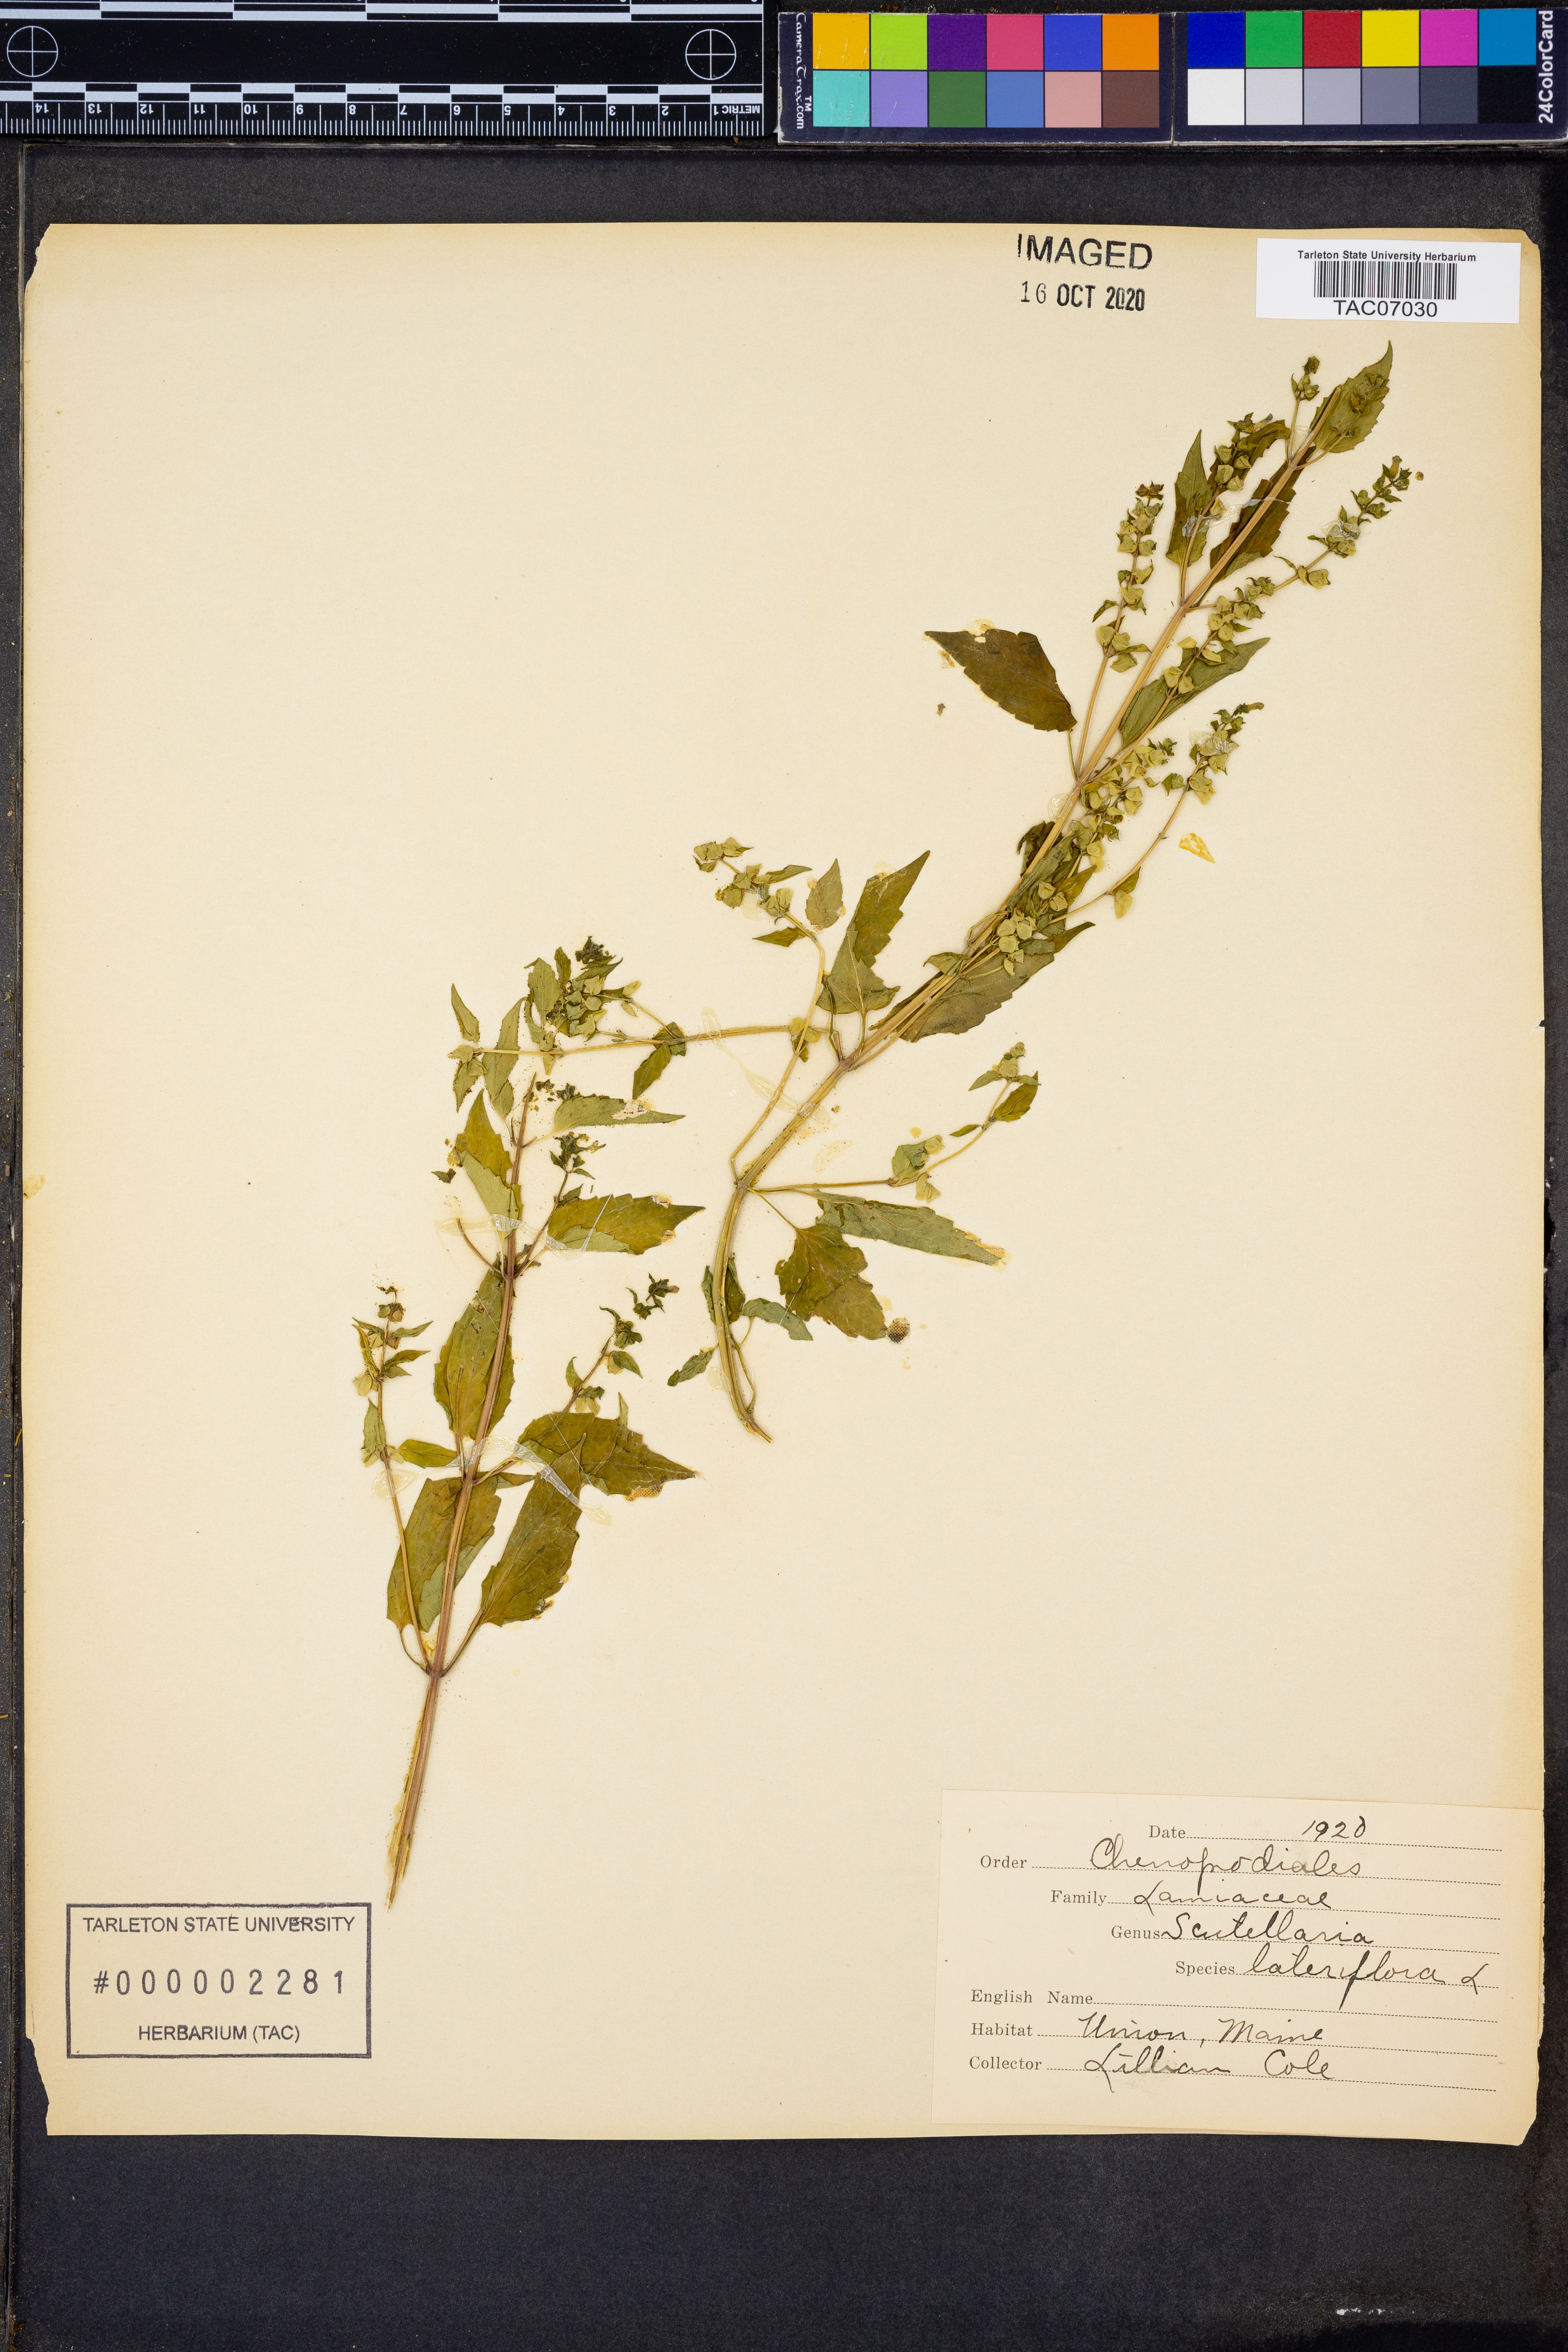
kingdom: Plantae
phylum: Tracheophyta
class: Magnoliopsida
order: Lamiales
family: Lamiaceae
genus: Scutellaria
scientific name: Scutellaria lateriflora
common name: Blue skullcap
